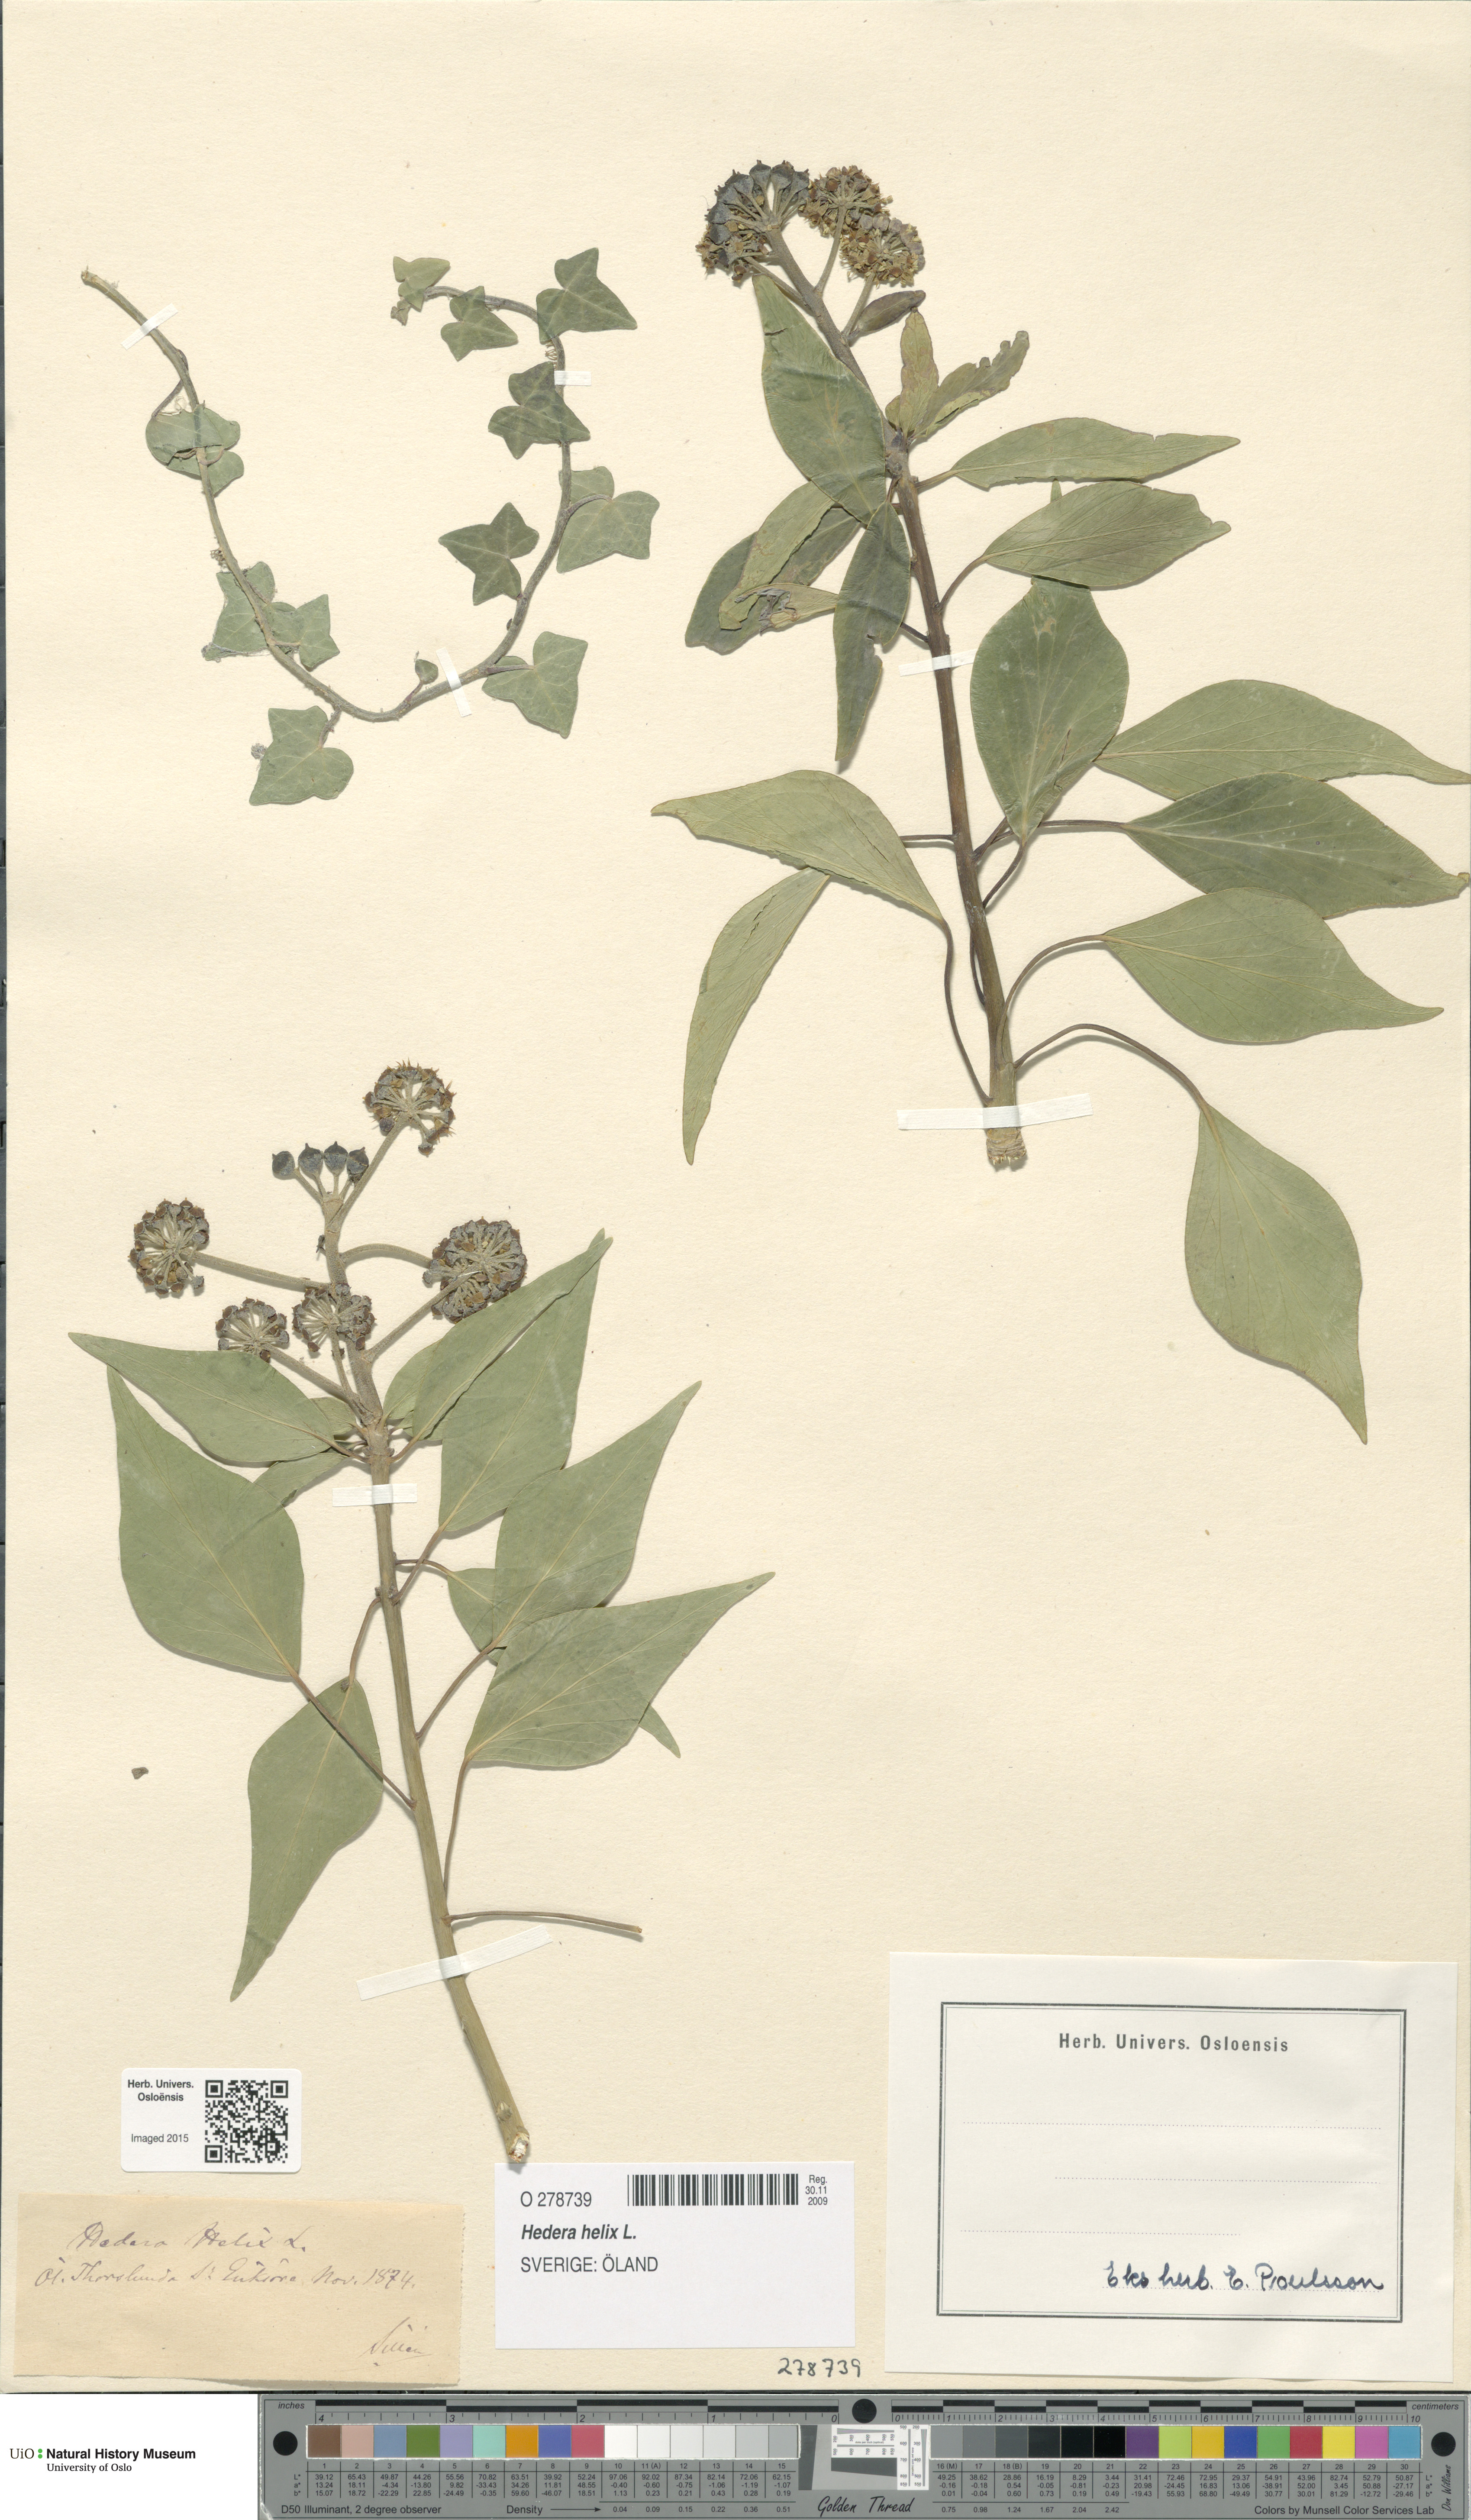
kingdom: Plantae
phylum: Tracheophyta
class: Magnoliopsida
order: Apiales
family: Araliaceae
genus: Hedera
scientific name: Hedera helix
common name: Ivy
